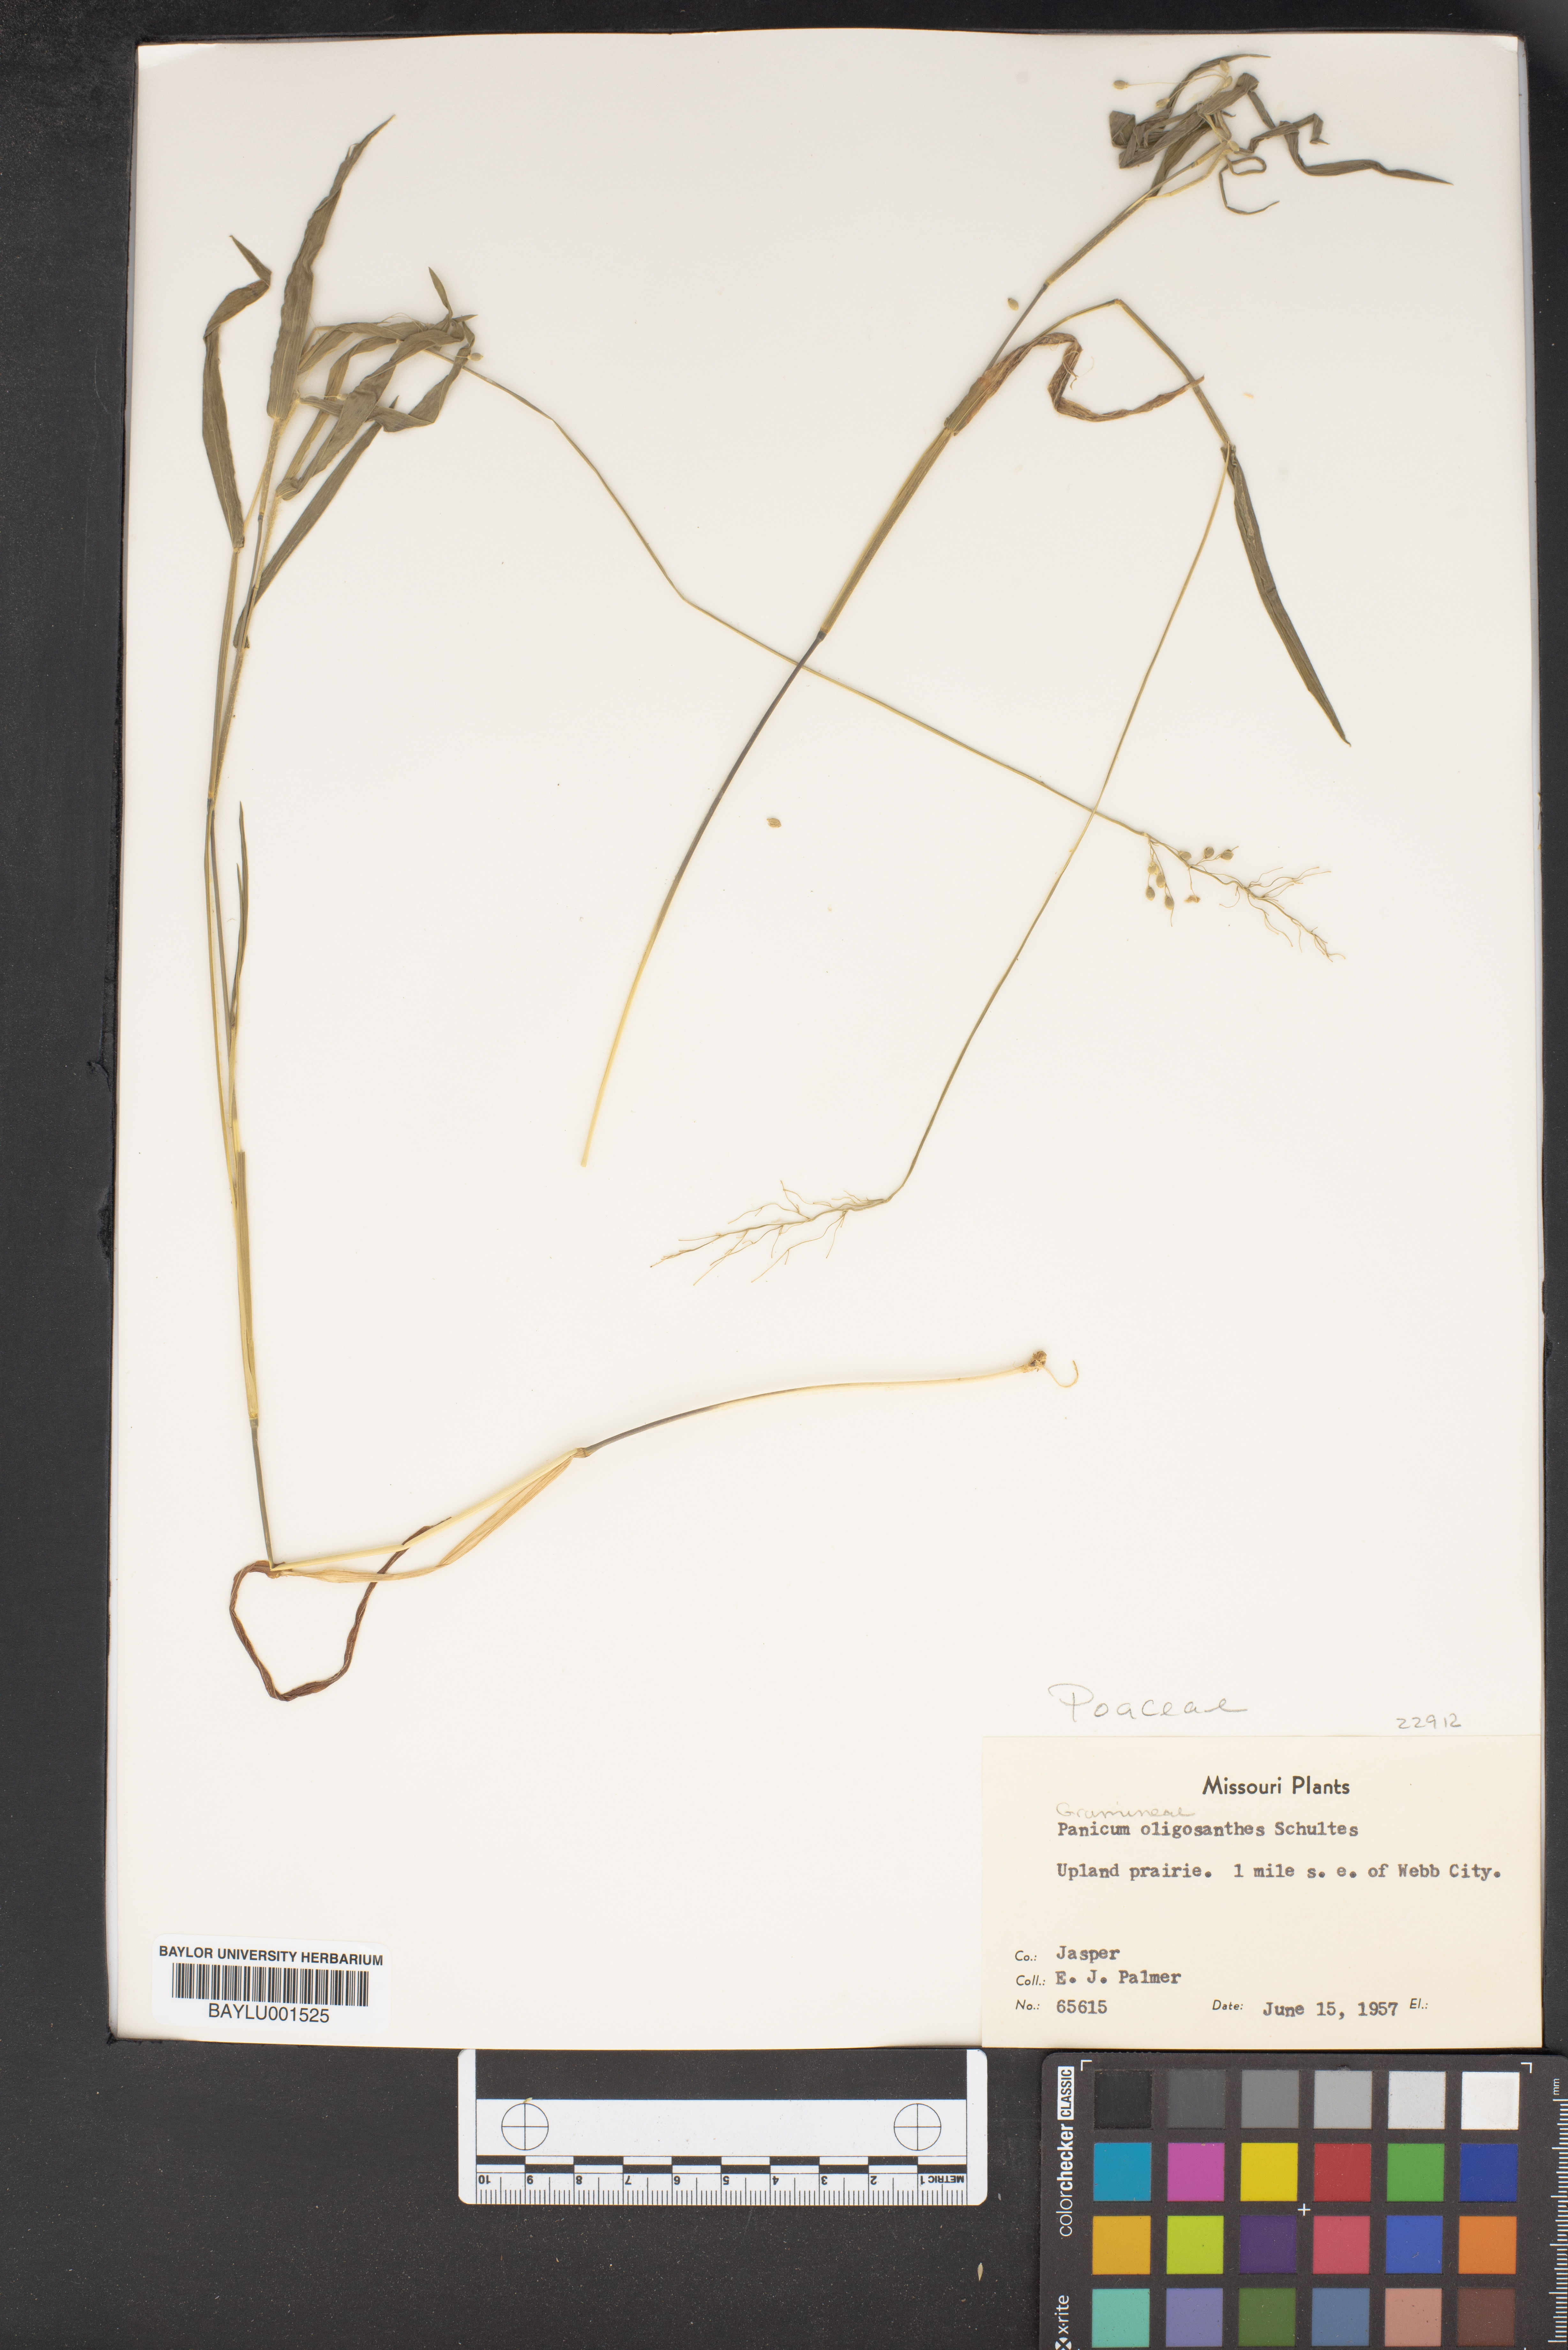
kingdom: Plantae
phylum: Tracheophyta
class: Liliopsida
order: Poales
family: Poaceae
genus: Dichanthelium
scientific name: Dichanthelium oligosanthes
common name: Few-anther obscuregrass
